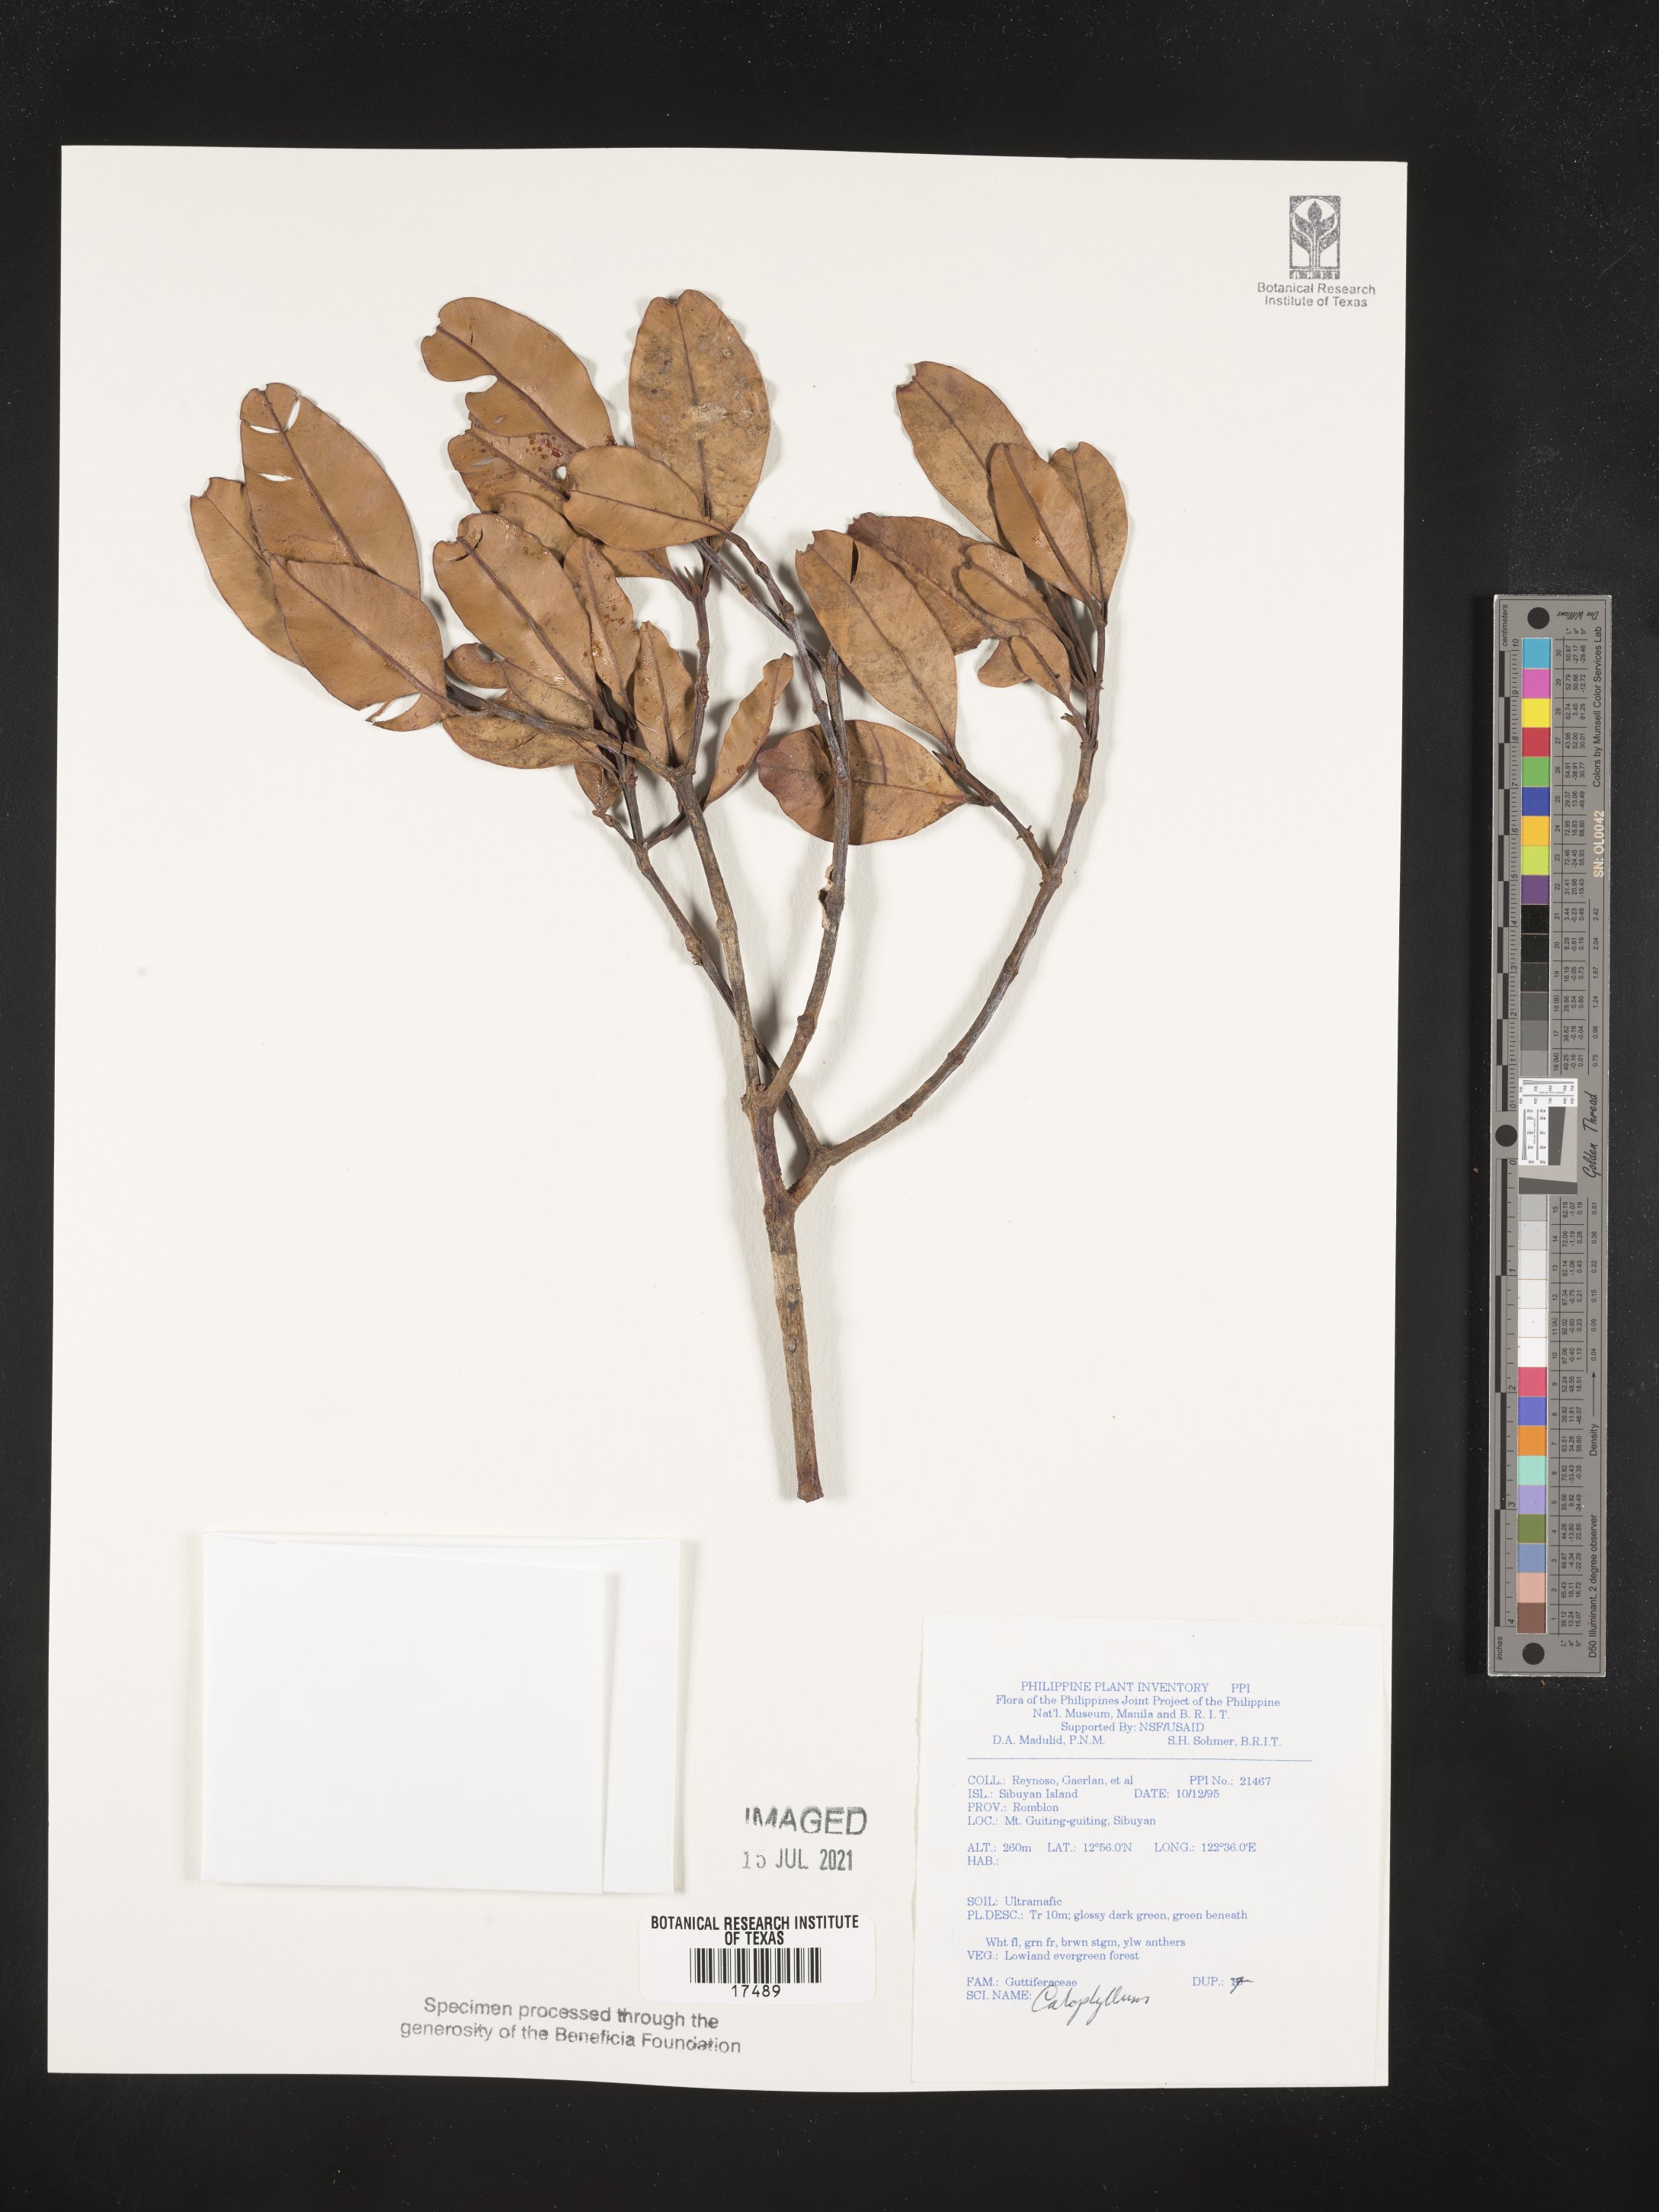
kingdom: Plantae
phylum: Tracheophyta
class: Magnoliopsida
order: Malpighiales
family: Calophyllaceae
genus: Calophyllum
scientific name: Calophyllum
